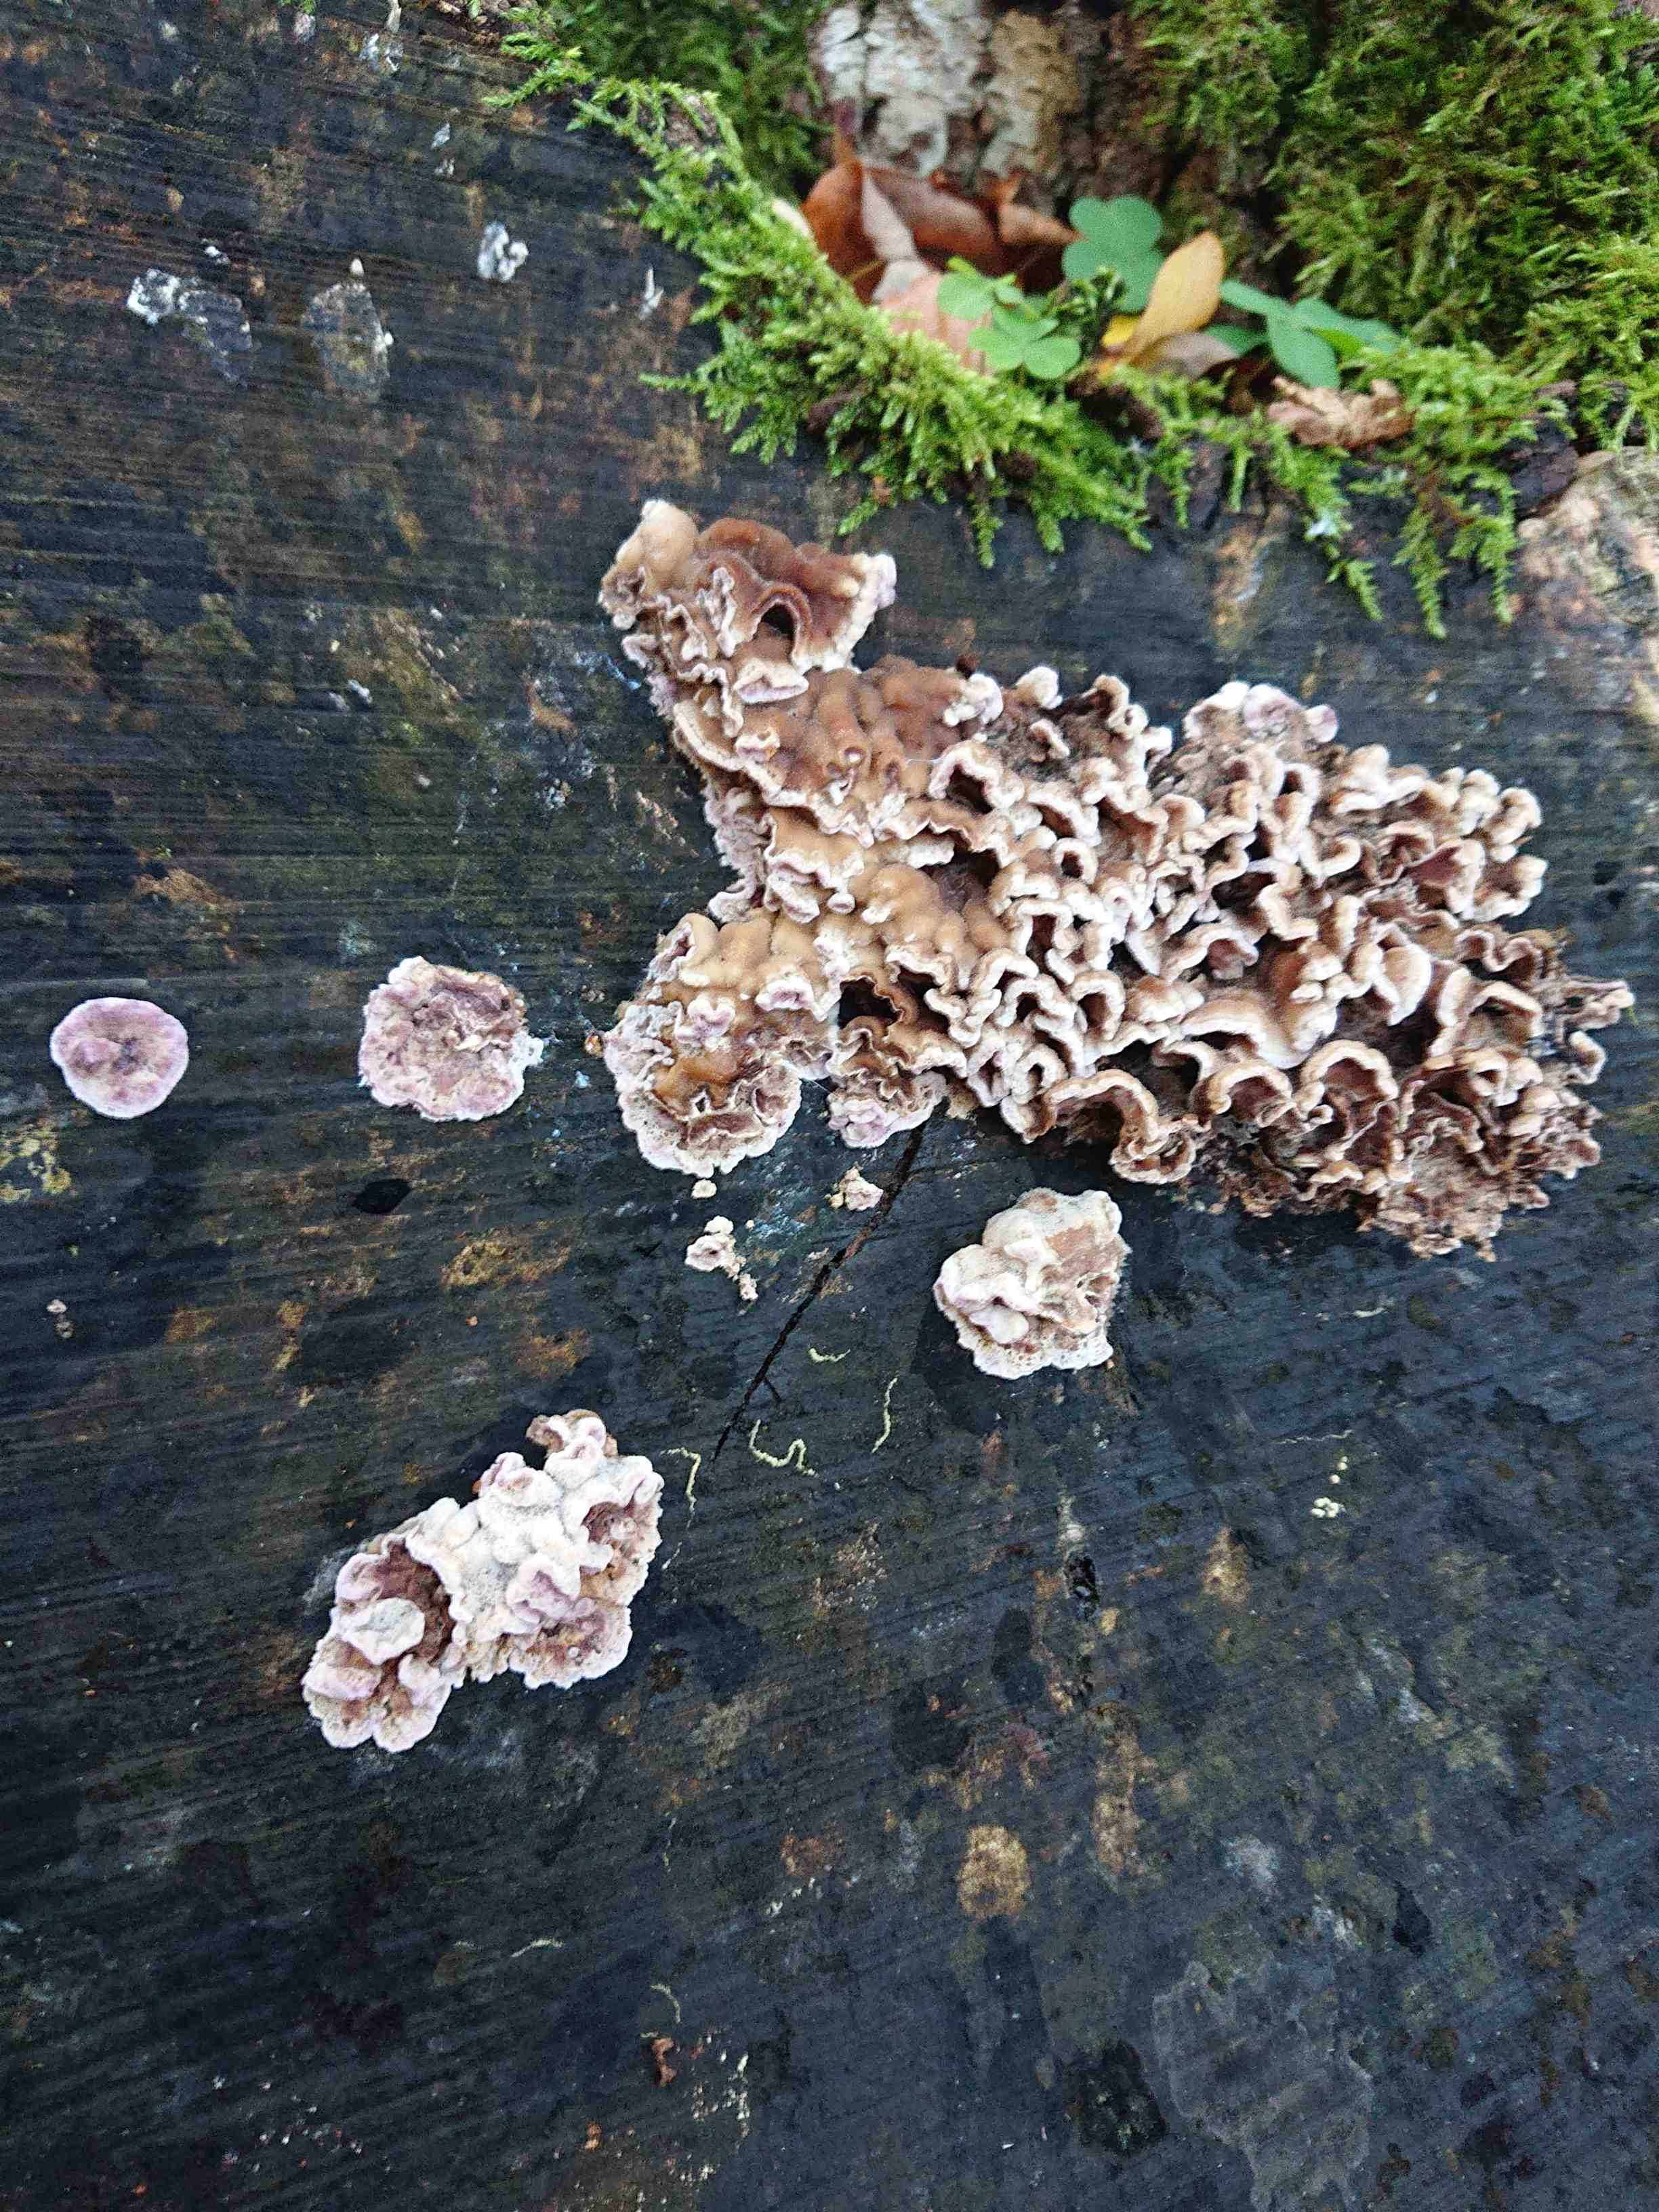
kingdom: Fungi
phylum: Basidiomycota
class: Agaricomycetes
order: Agaricales
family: Cyphellaceae
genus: Chondrostereum
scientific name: Chondrostereum purpureum
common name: purpurlædersvamp
